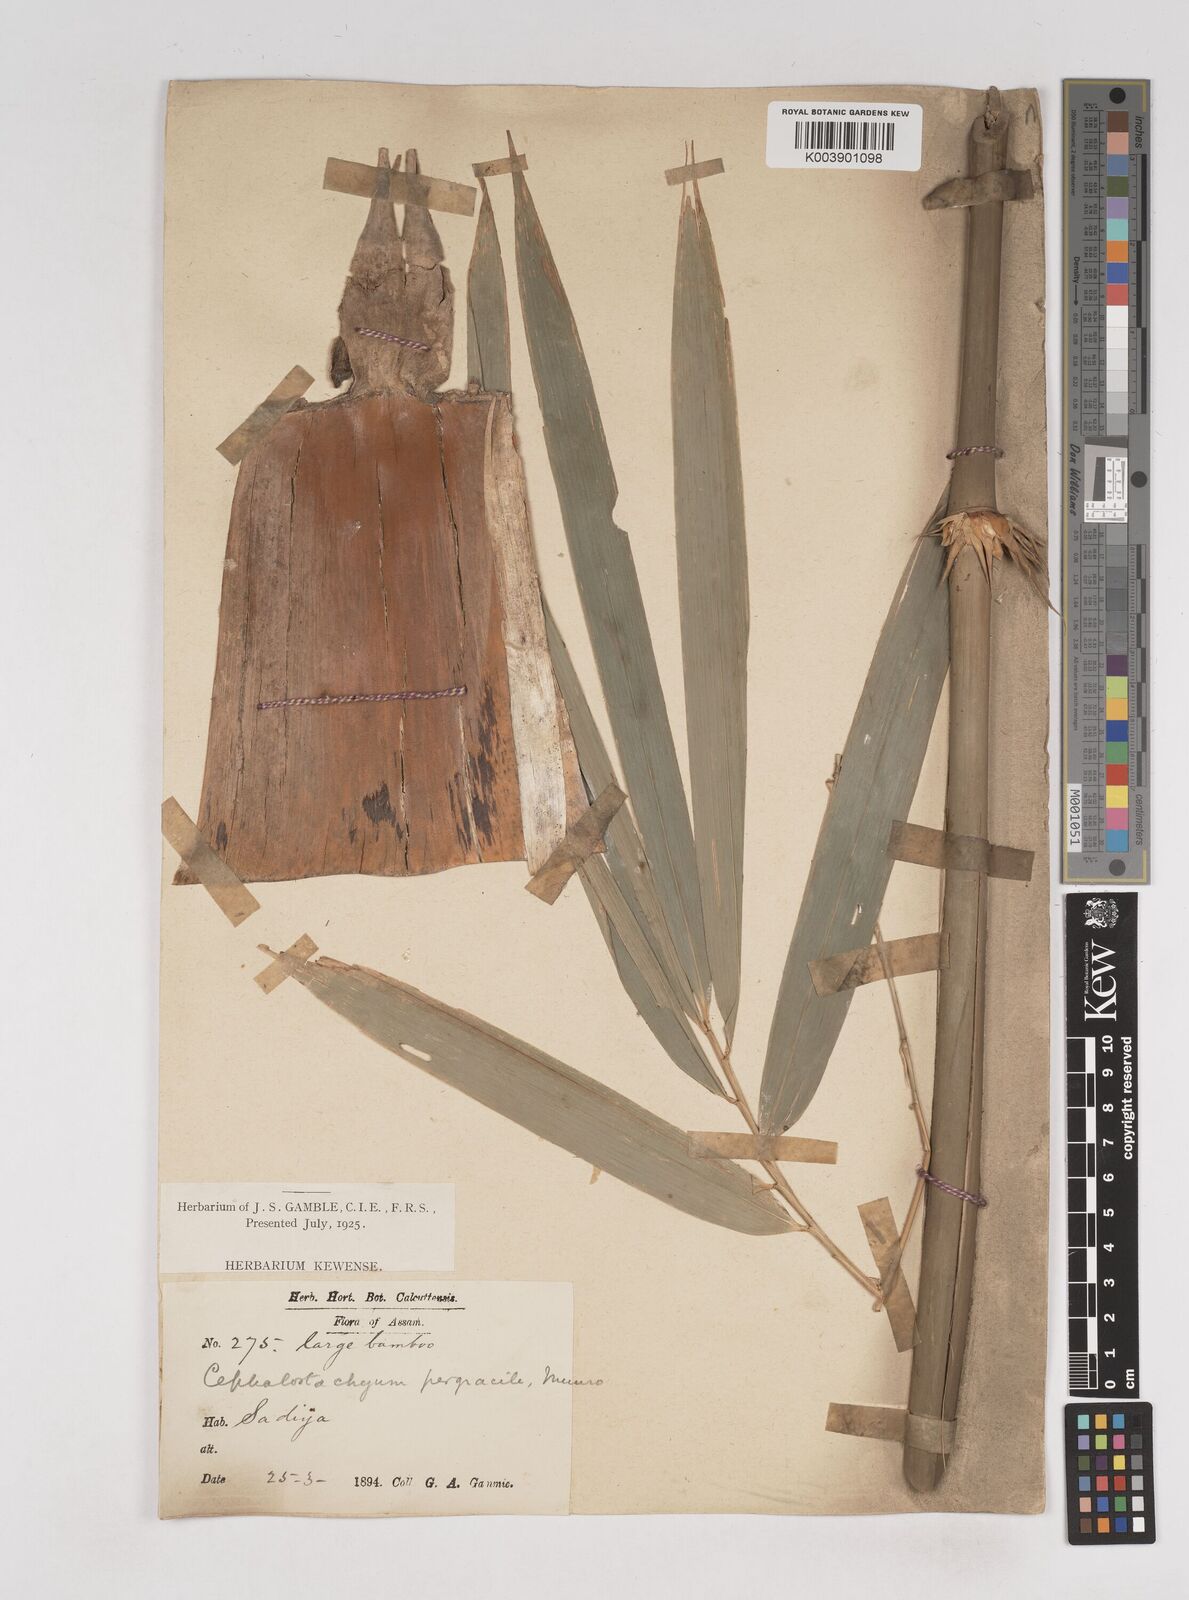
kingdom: Plantae
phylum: Tracheophyta
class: Liliopsida
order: Poales
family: Poaceae
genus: Schizostachyum
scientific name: Schizostachyum pergracile
